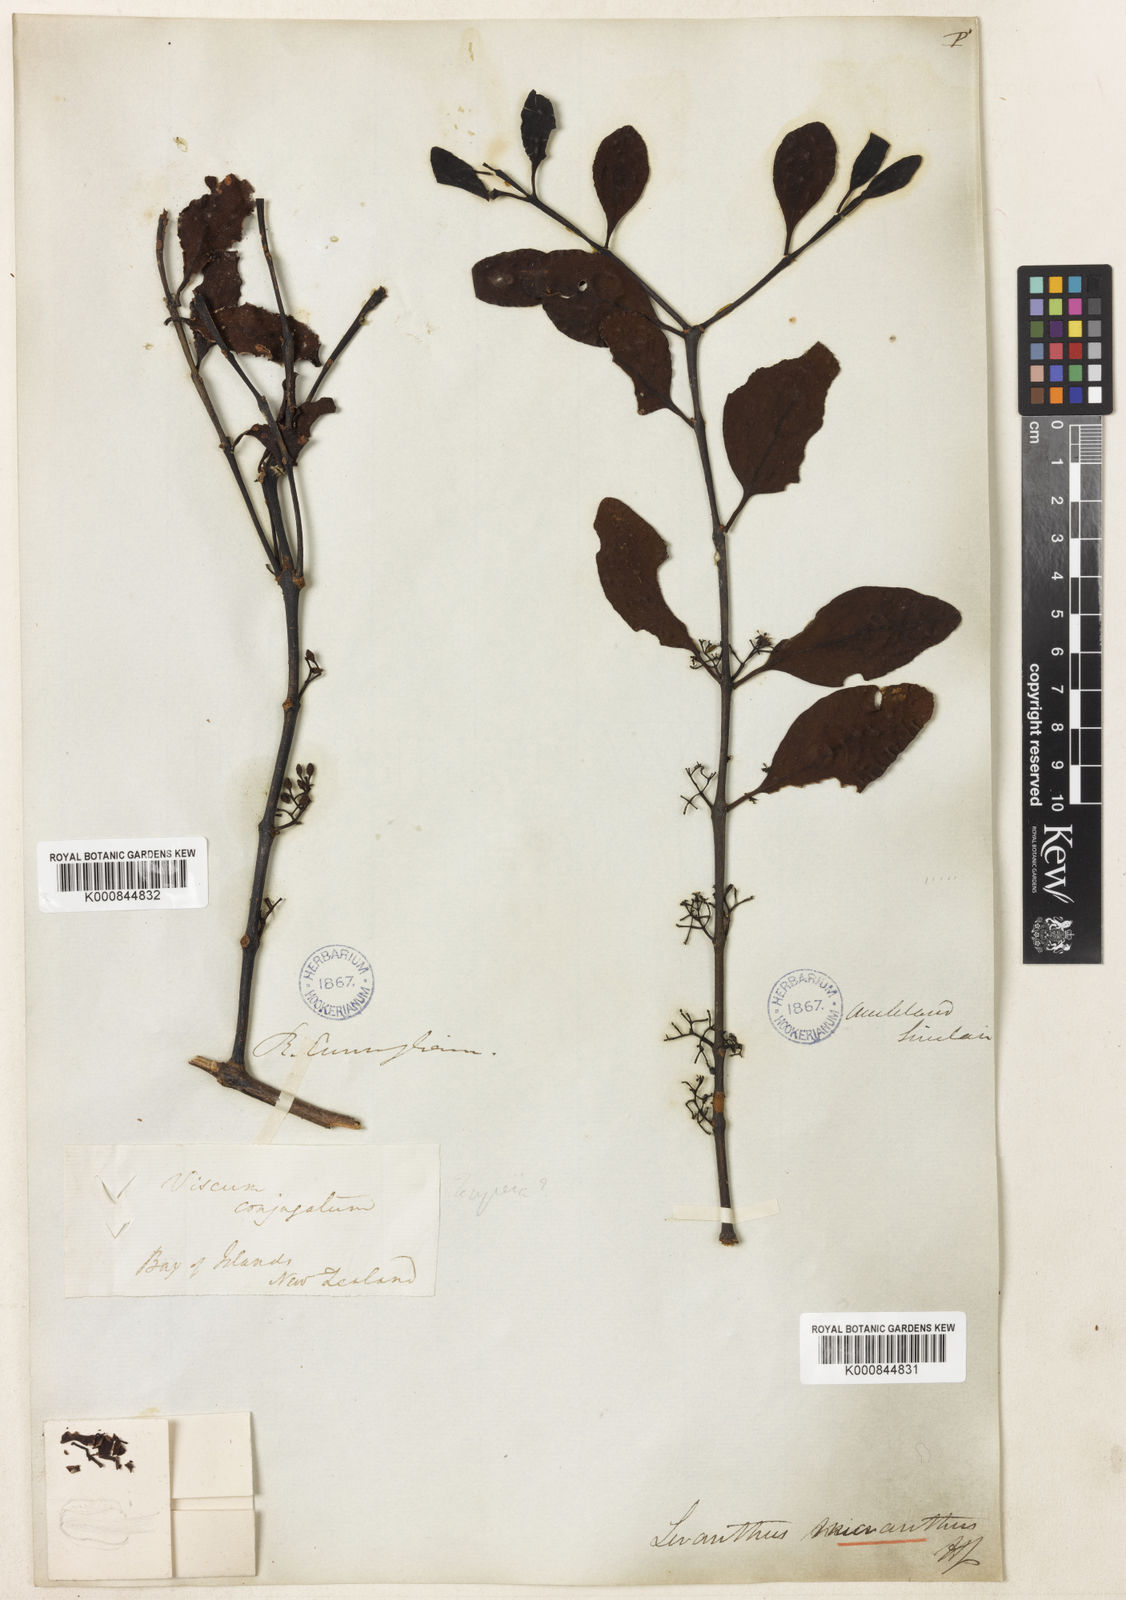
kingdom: Plantae
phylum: Tracheophyta
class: Magnoliopsida
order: Santalales
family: Loranthaceae
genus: Ileostylus
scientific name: Ileostylus micranthus
